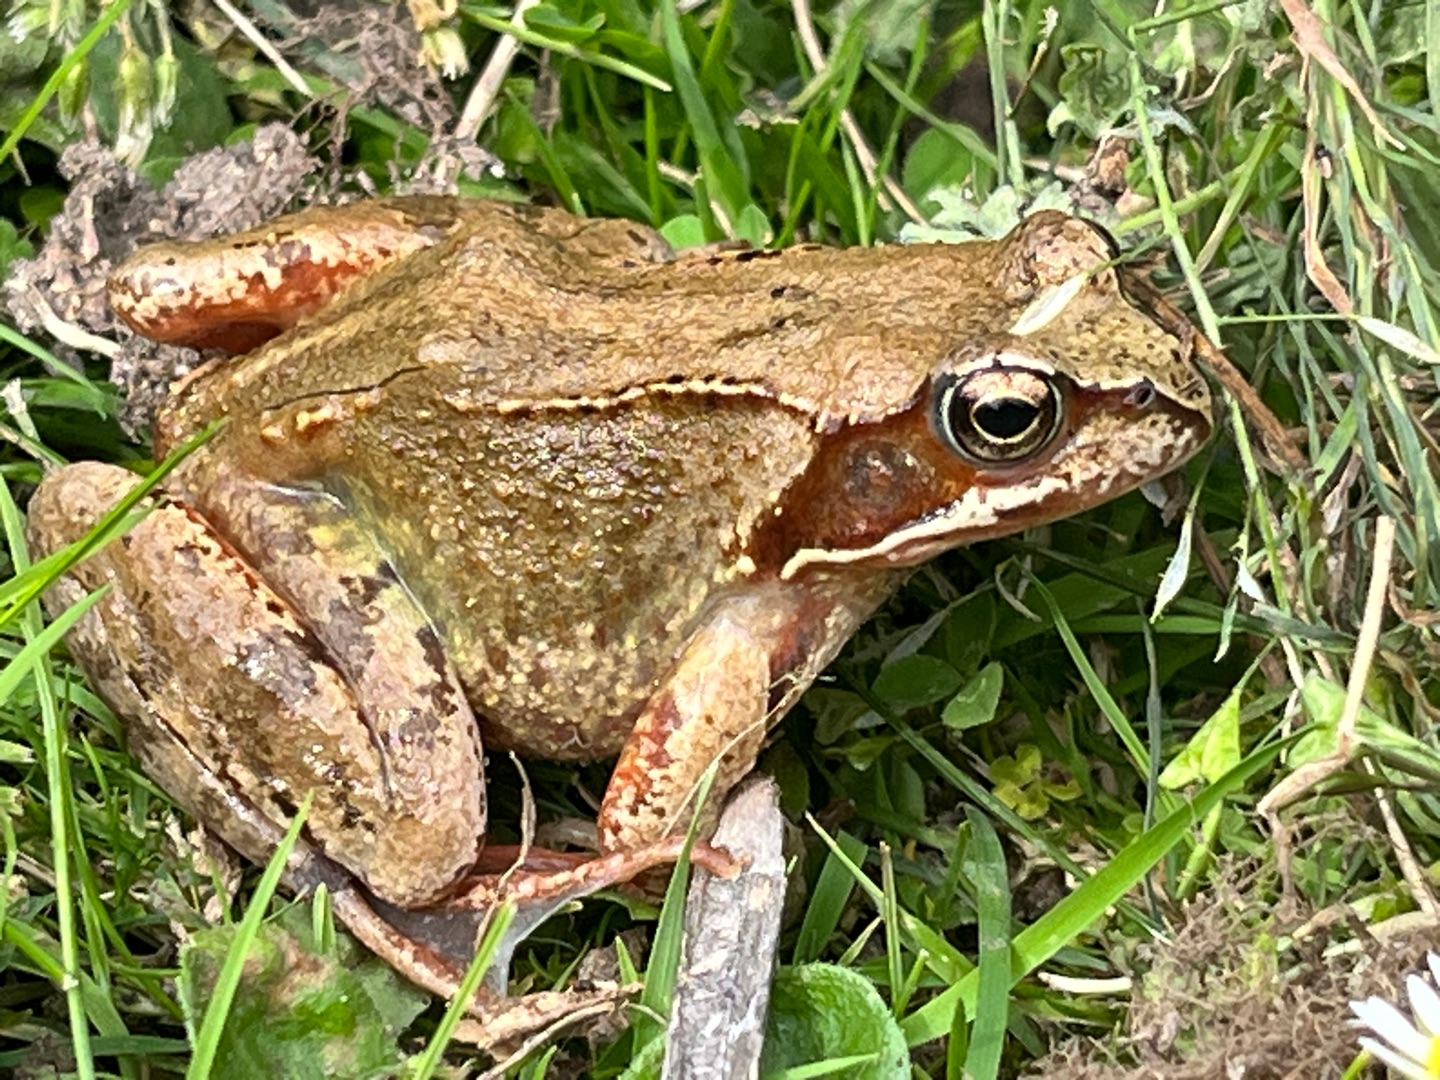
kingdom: Animalia
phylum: Chordata
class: Amphibia
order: Anura
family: Ranidae
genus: Rana
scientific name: Rana temporaria
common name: Butsnudet frø
